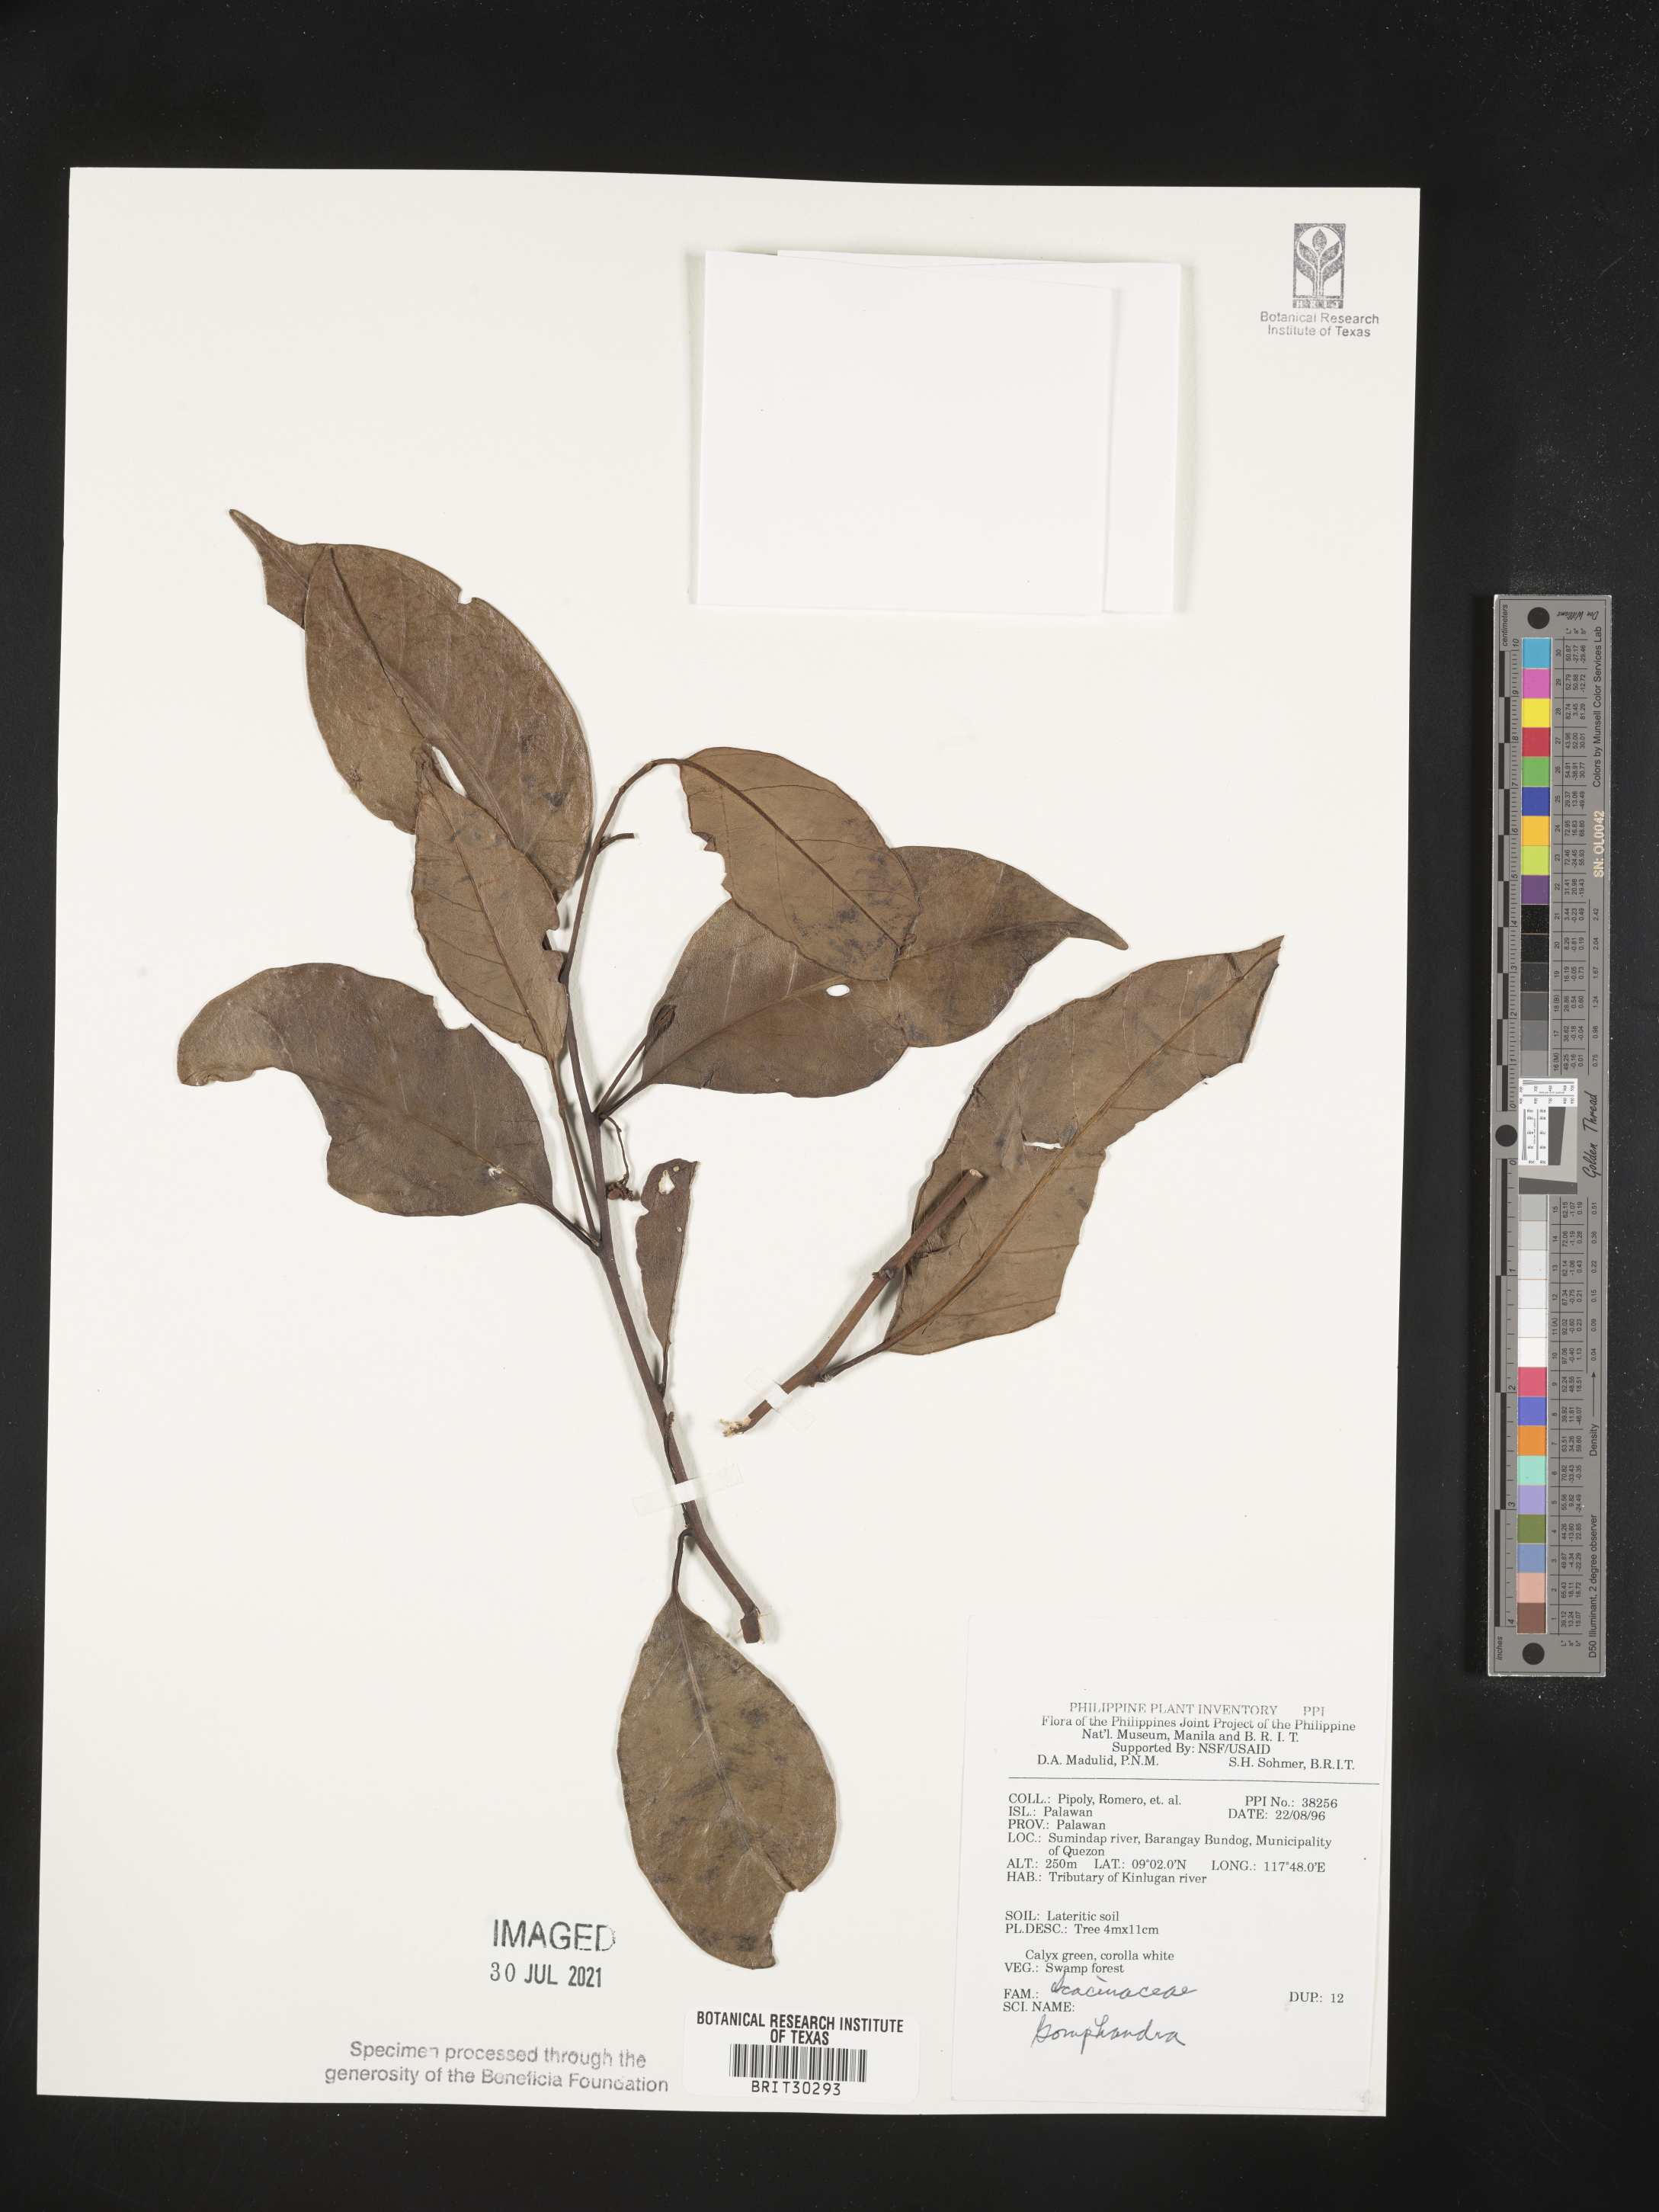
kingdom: Plantae
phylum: Tracheophyta
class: Magnoliopsida
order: Cardiopteridales
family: Stemonuraceae
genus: Gomphandra
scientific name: Gomphandra
